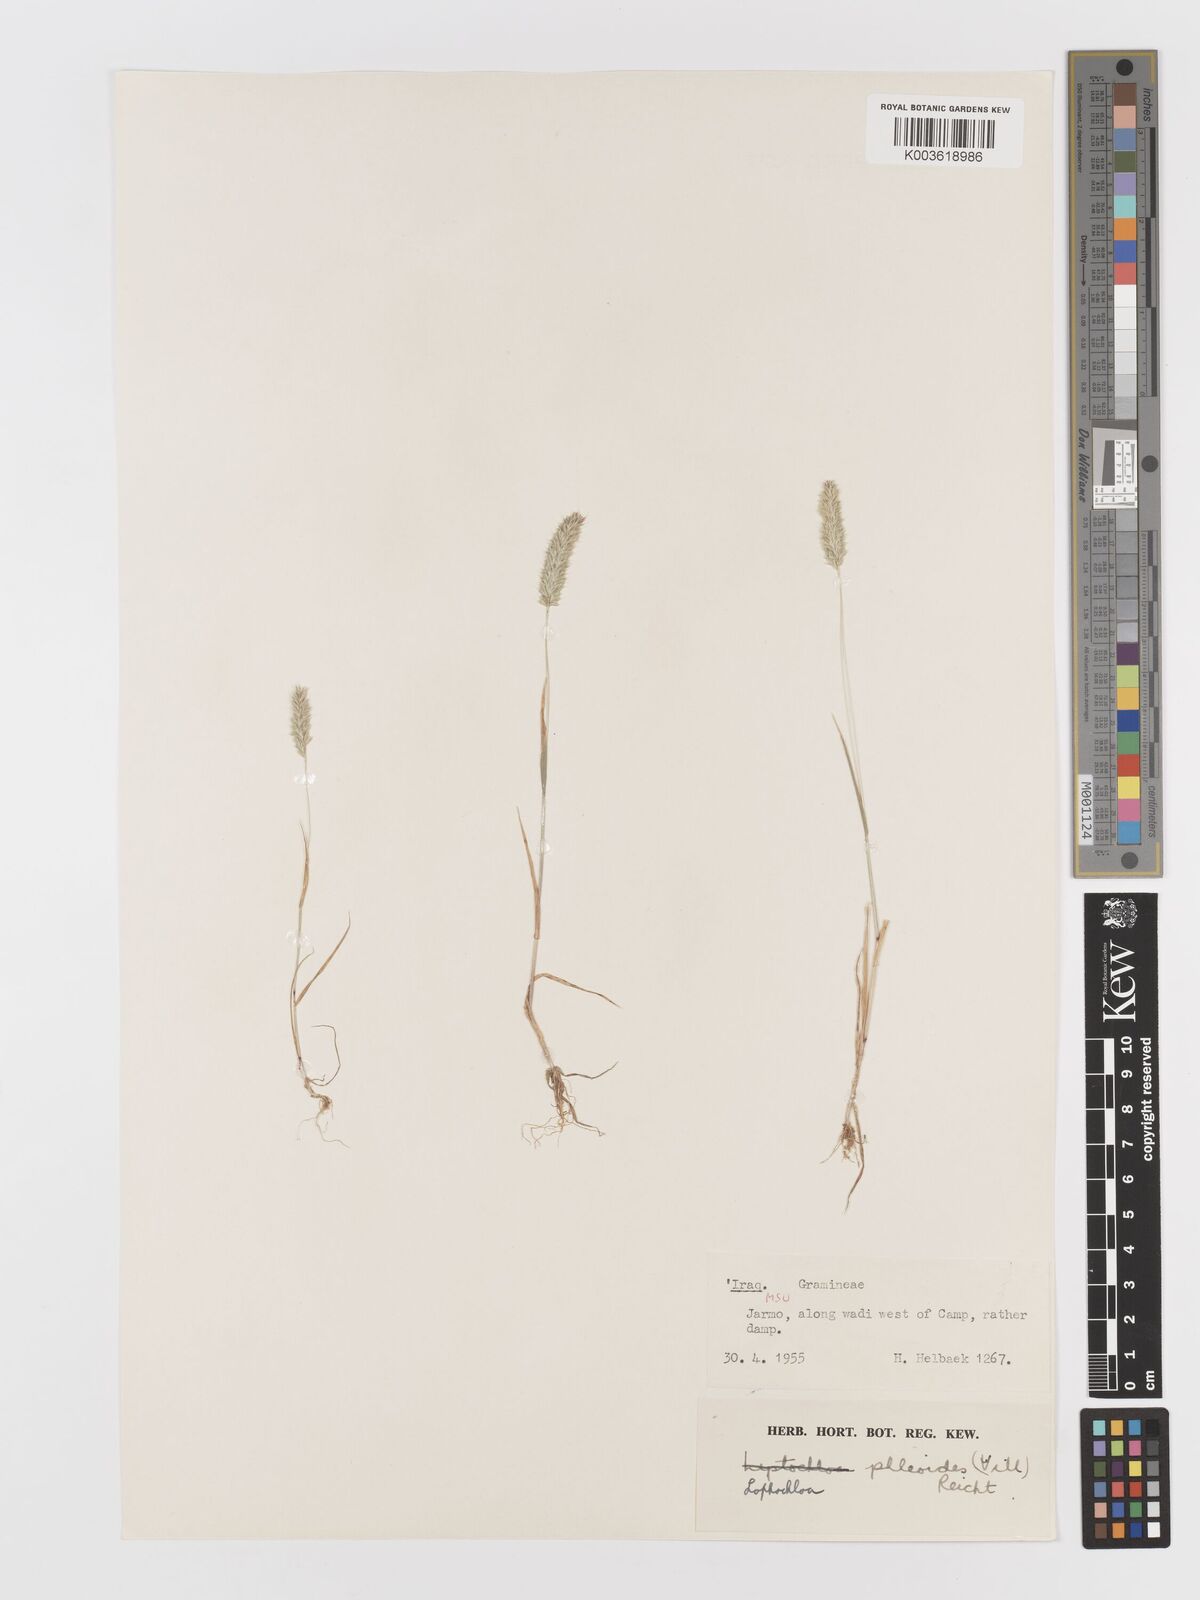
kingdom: Plantae
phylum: Tracheophyta
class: Liliopsida
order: Poales
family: Poaceae
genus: Rostraria
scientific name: Rostraria cristata
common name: Mediterranean hair-grass
